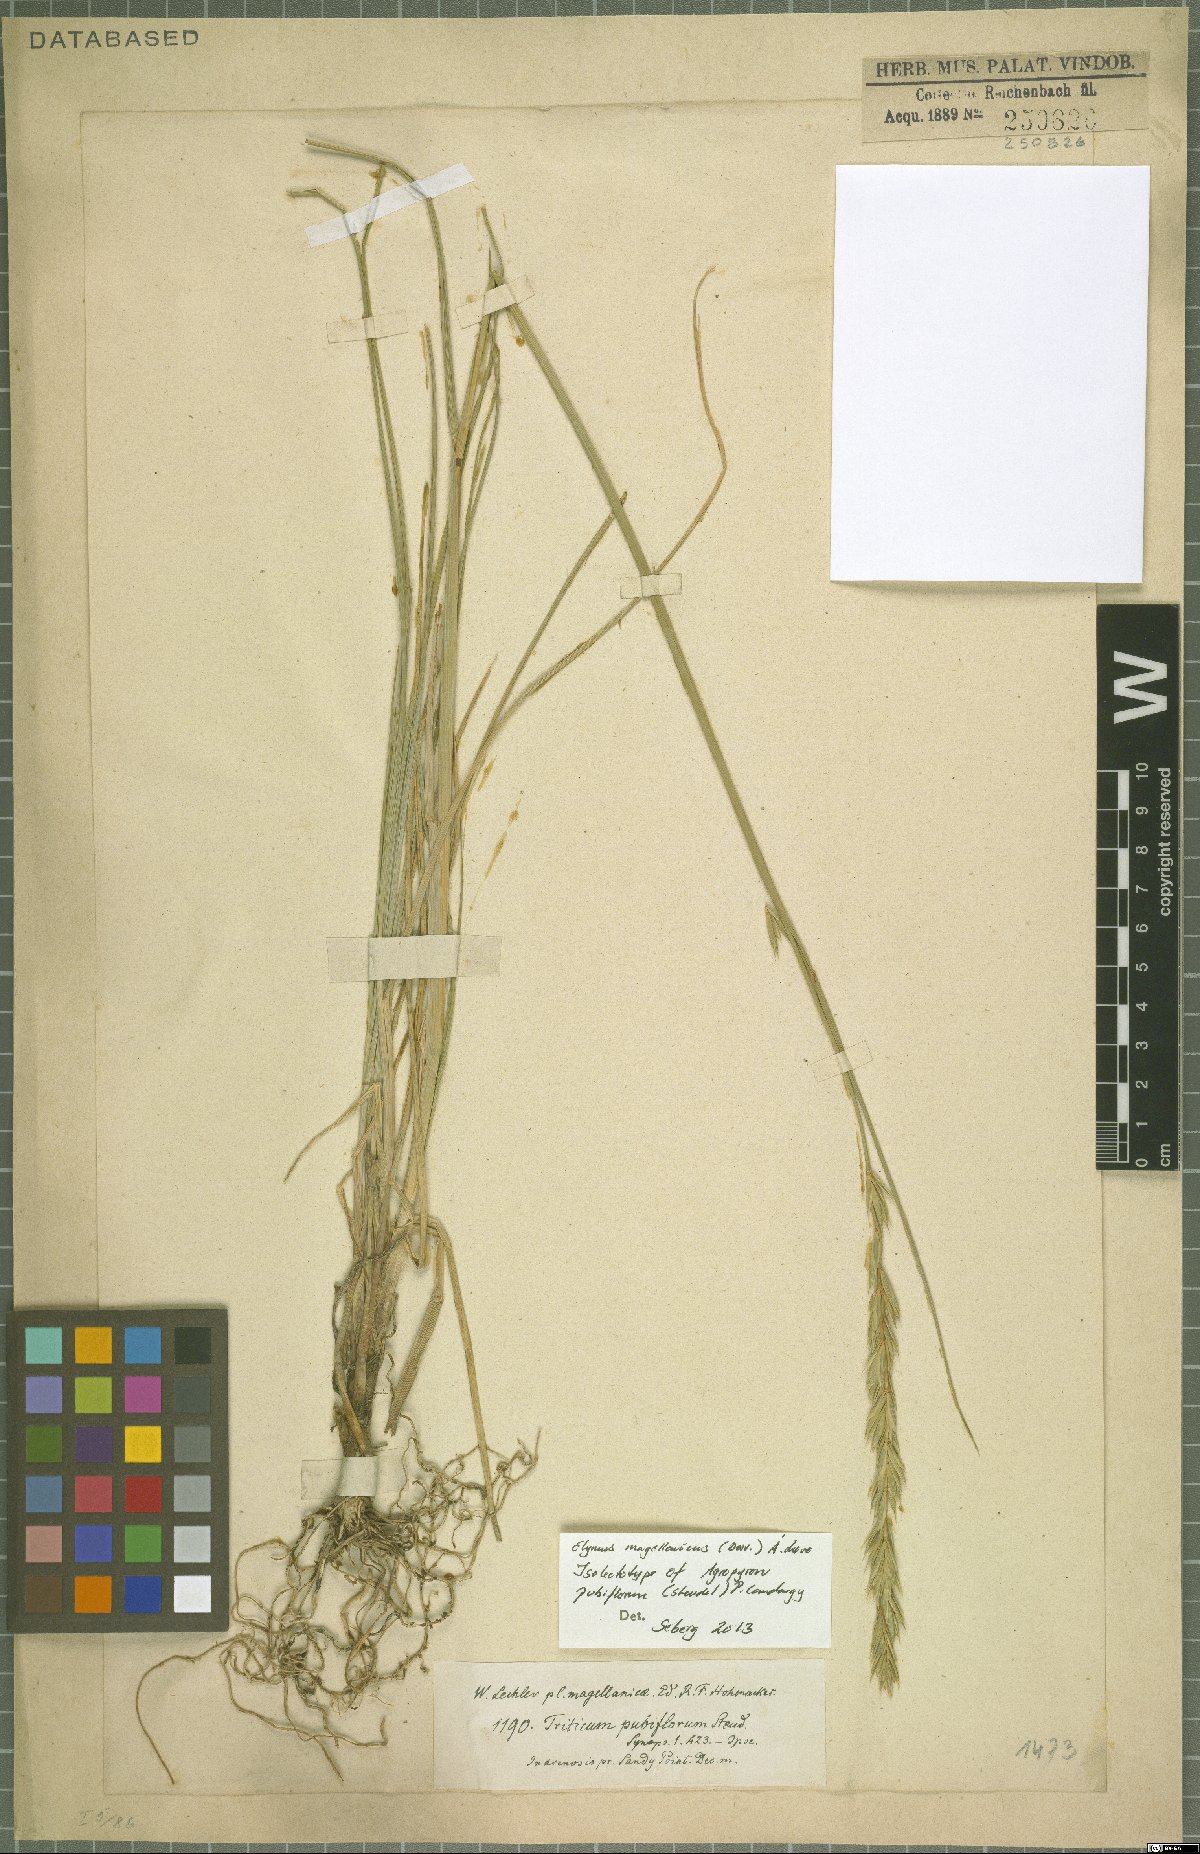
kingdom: Plantae
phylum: Tracheophyta
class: Liliopsida
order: Poales
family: Poaceae
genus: Elymus
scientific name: Elymus magellanicus
